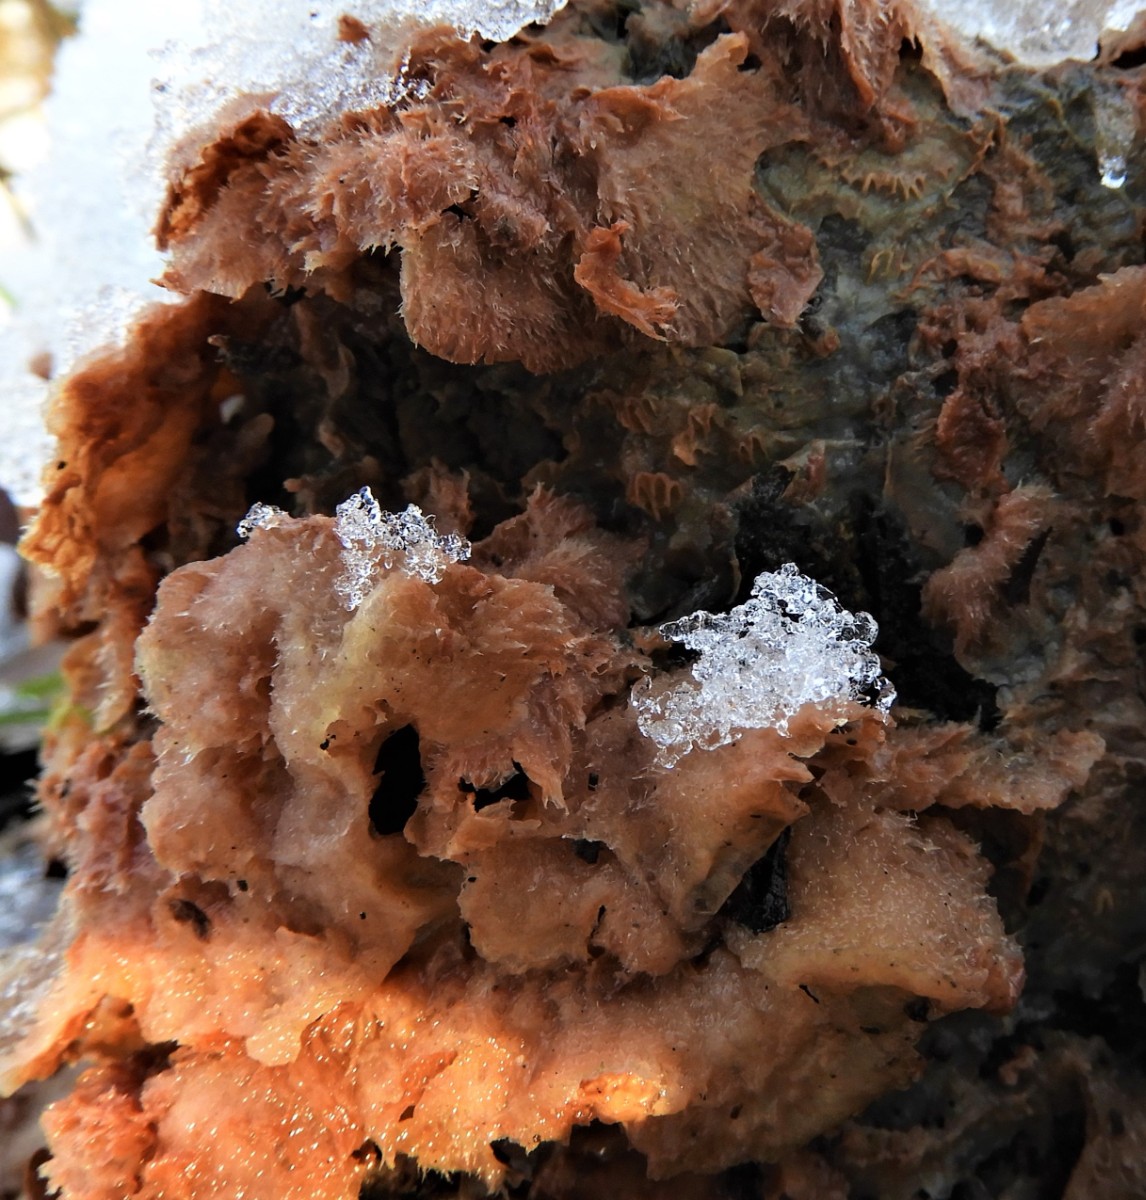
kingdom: Fungi
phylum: Basidiomycota
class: Agaricomycetes
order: Polyporales
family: Meruliaceae
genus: Phlebia
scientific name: Phlebia tremellosa
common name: bævrende åresvamp
